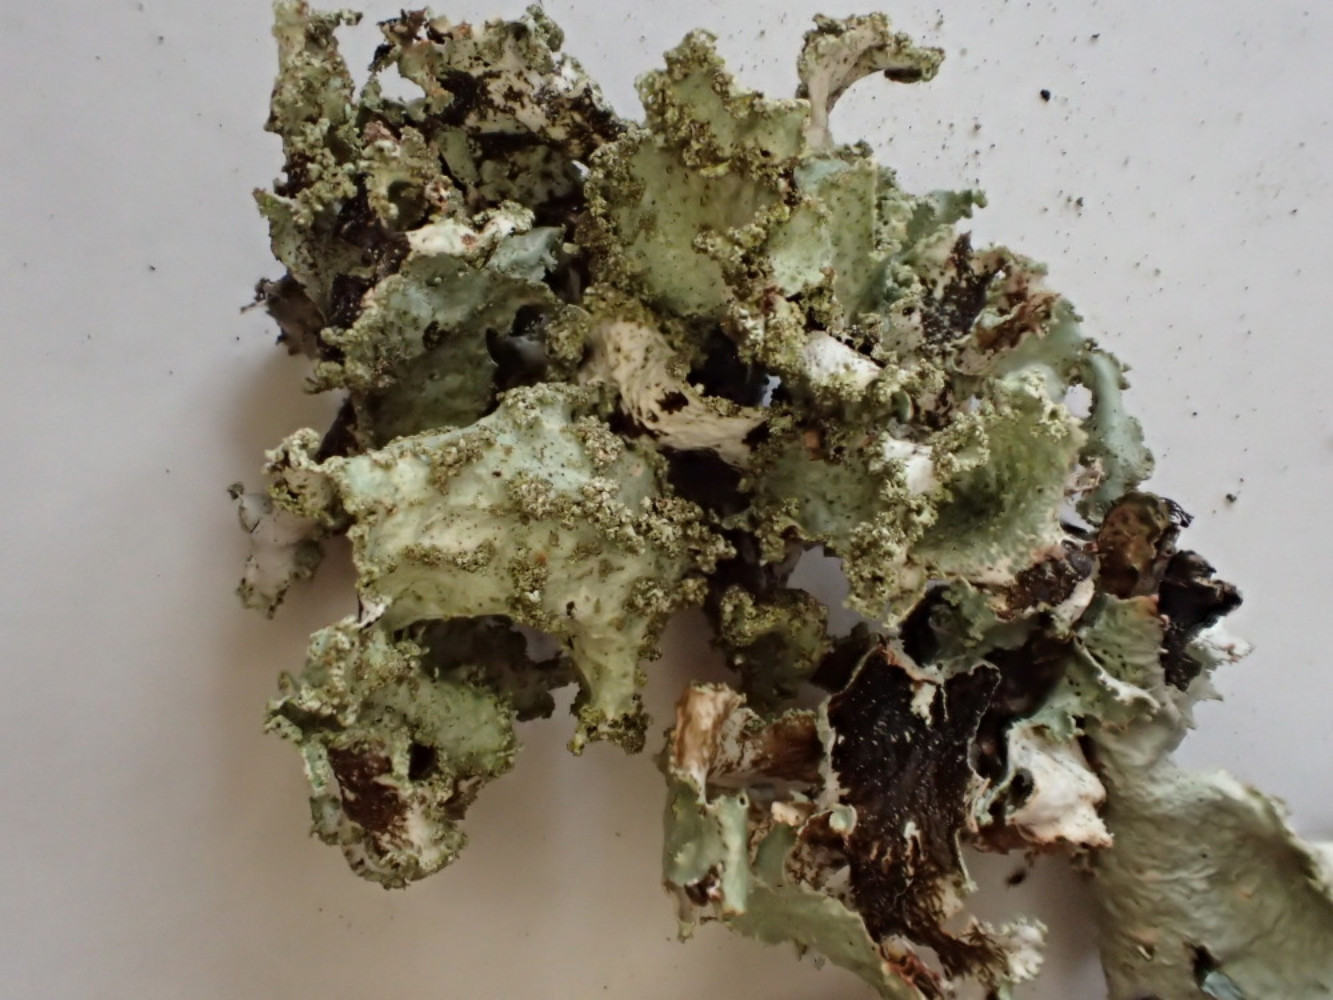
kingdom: Fungi
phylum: Ascomycota
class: Lecanoromycetes
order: Lecanorales
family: Parmeliaceae
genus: Platismatia
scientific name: Platismatia glauca
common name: blågrå papirlav
